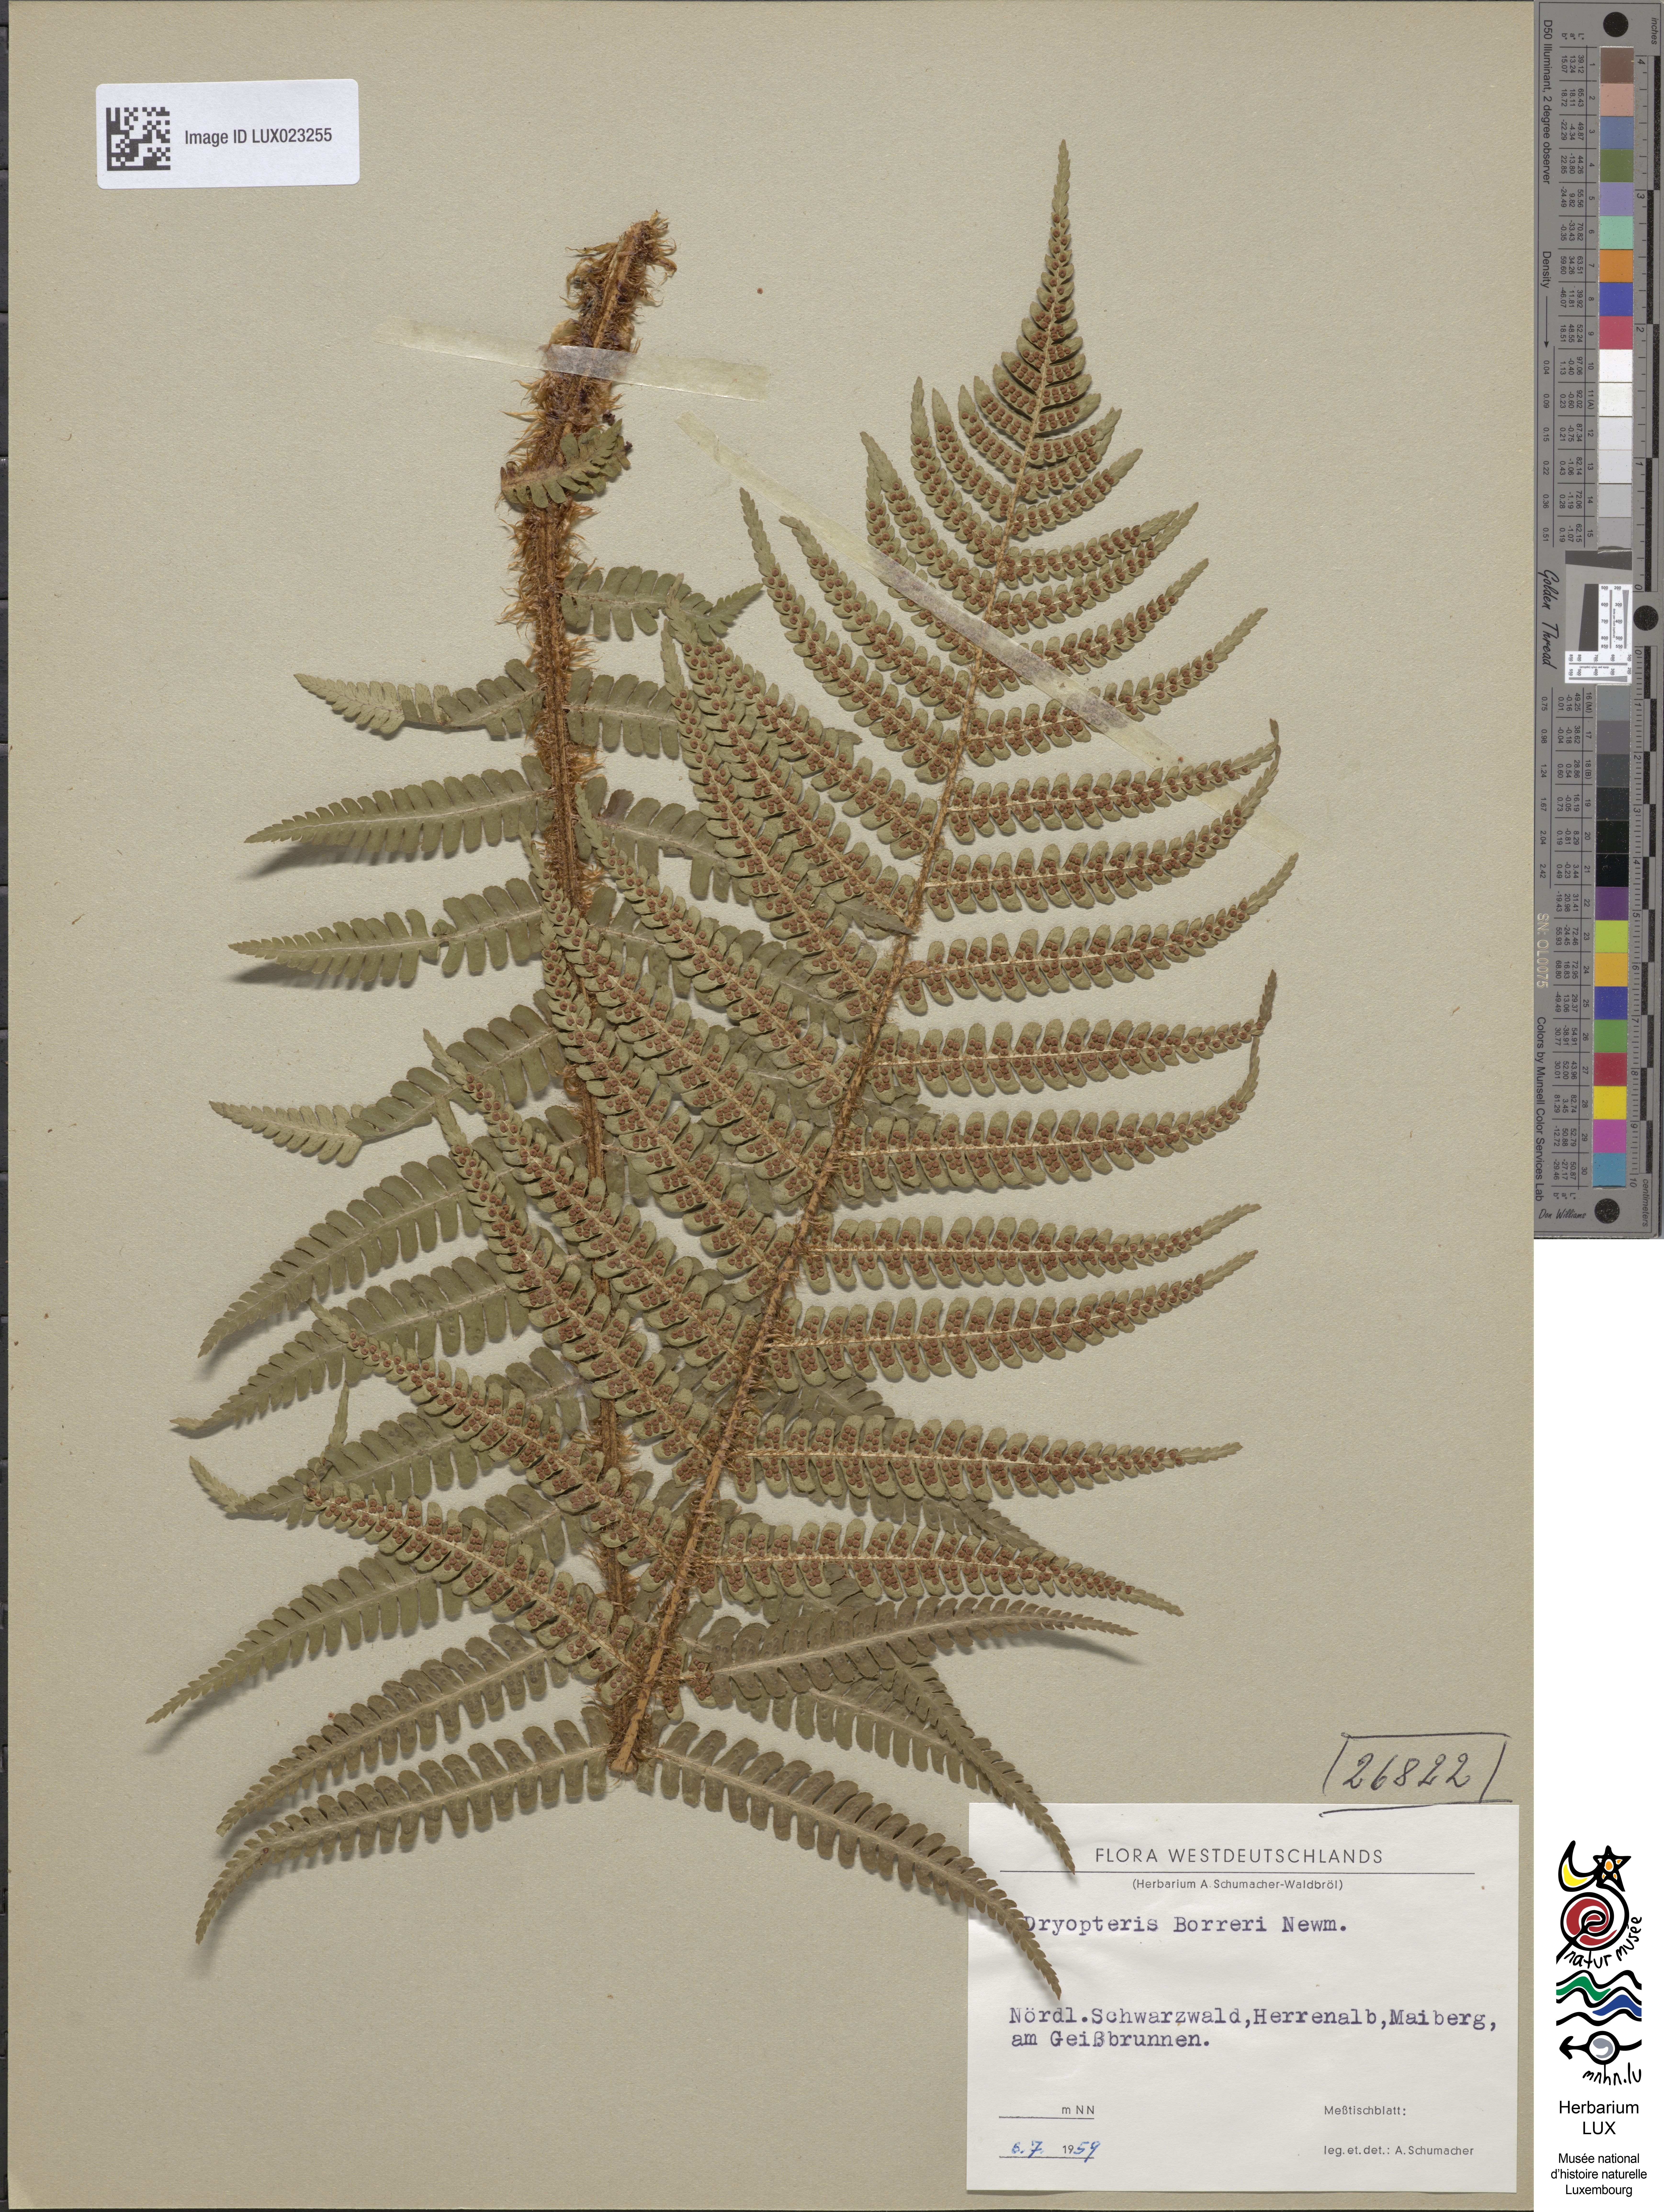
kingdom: Plantae
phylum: Tracheophyta
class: Polypodiopsida
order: Polypodiales
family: Dryopteridaceae
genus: Dryopteris
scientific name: Dryopteris
